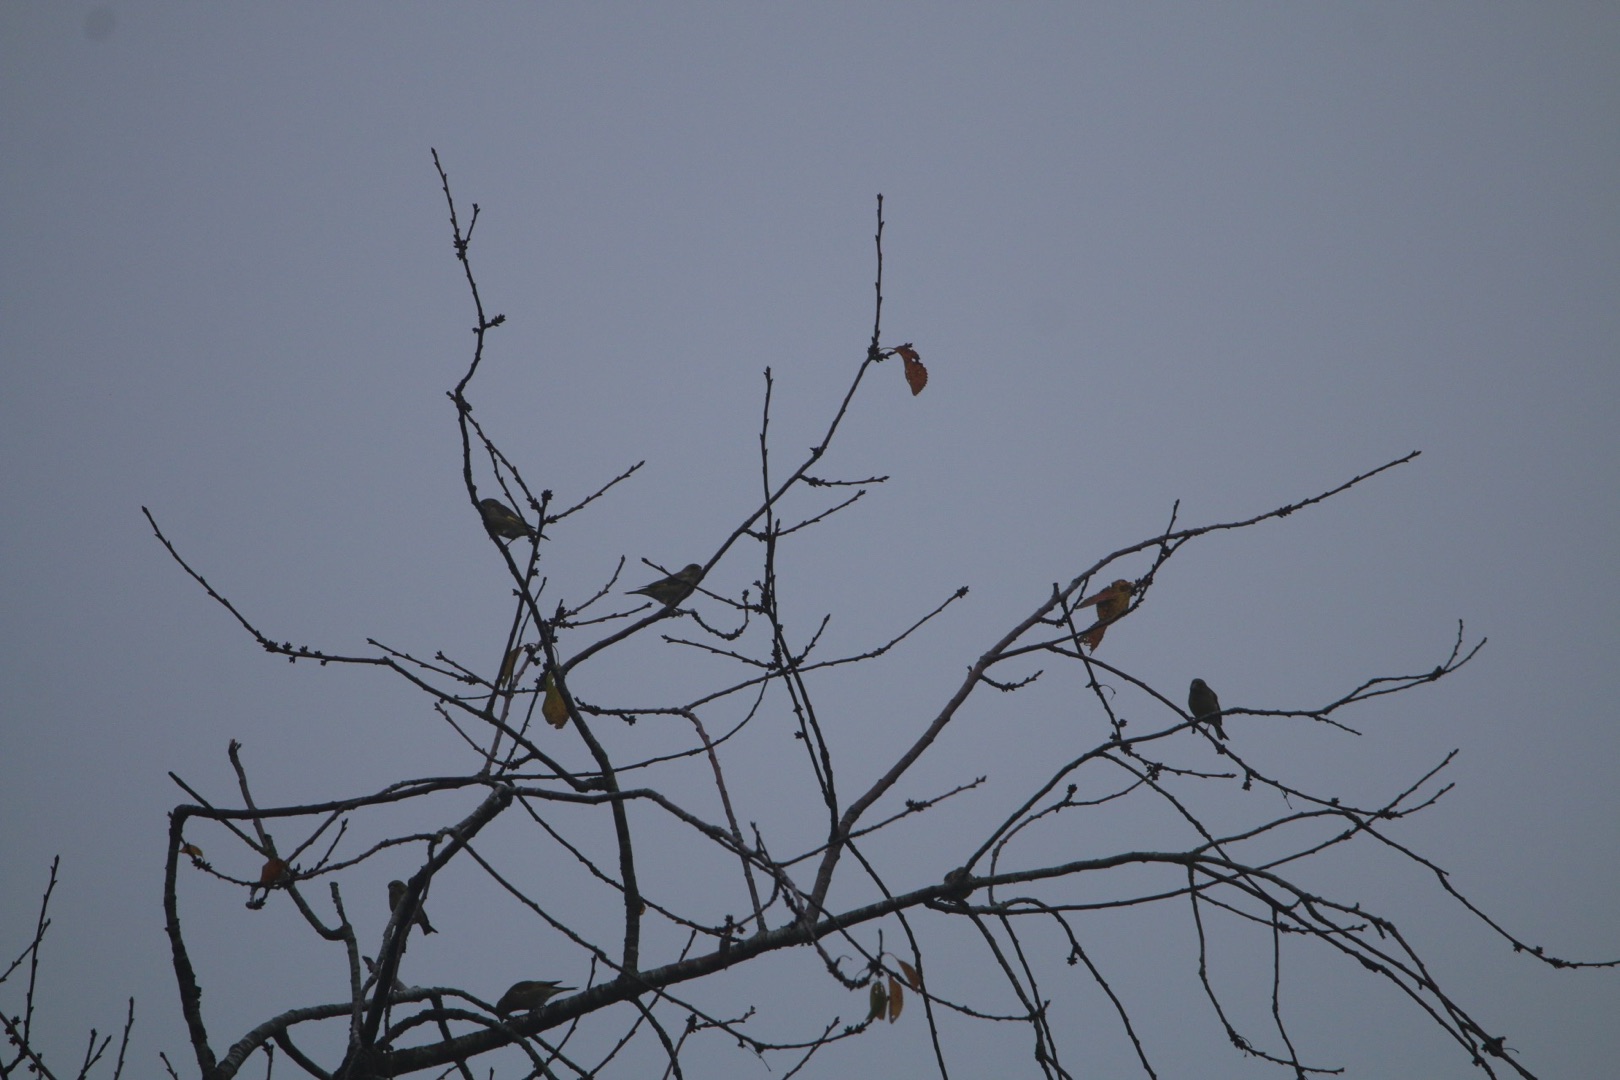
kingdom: Plantae
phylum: Tracheophyta
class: Liliopsida
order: Poales
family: Poaceae
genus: Chloris
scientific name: Chloris chloris
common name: Grønirisk
